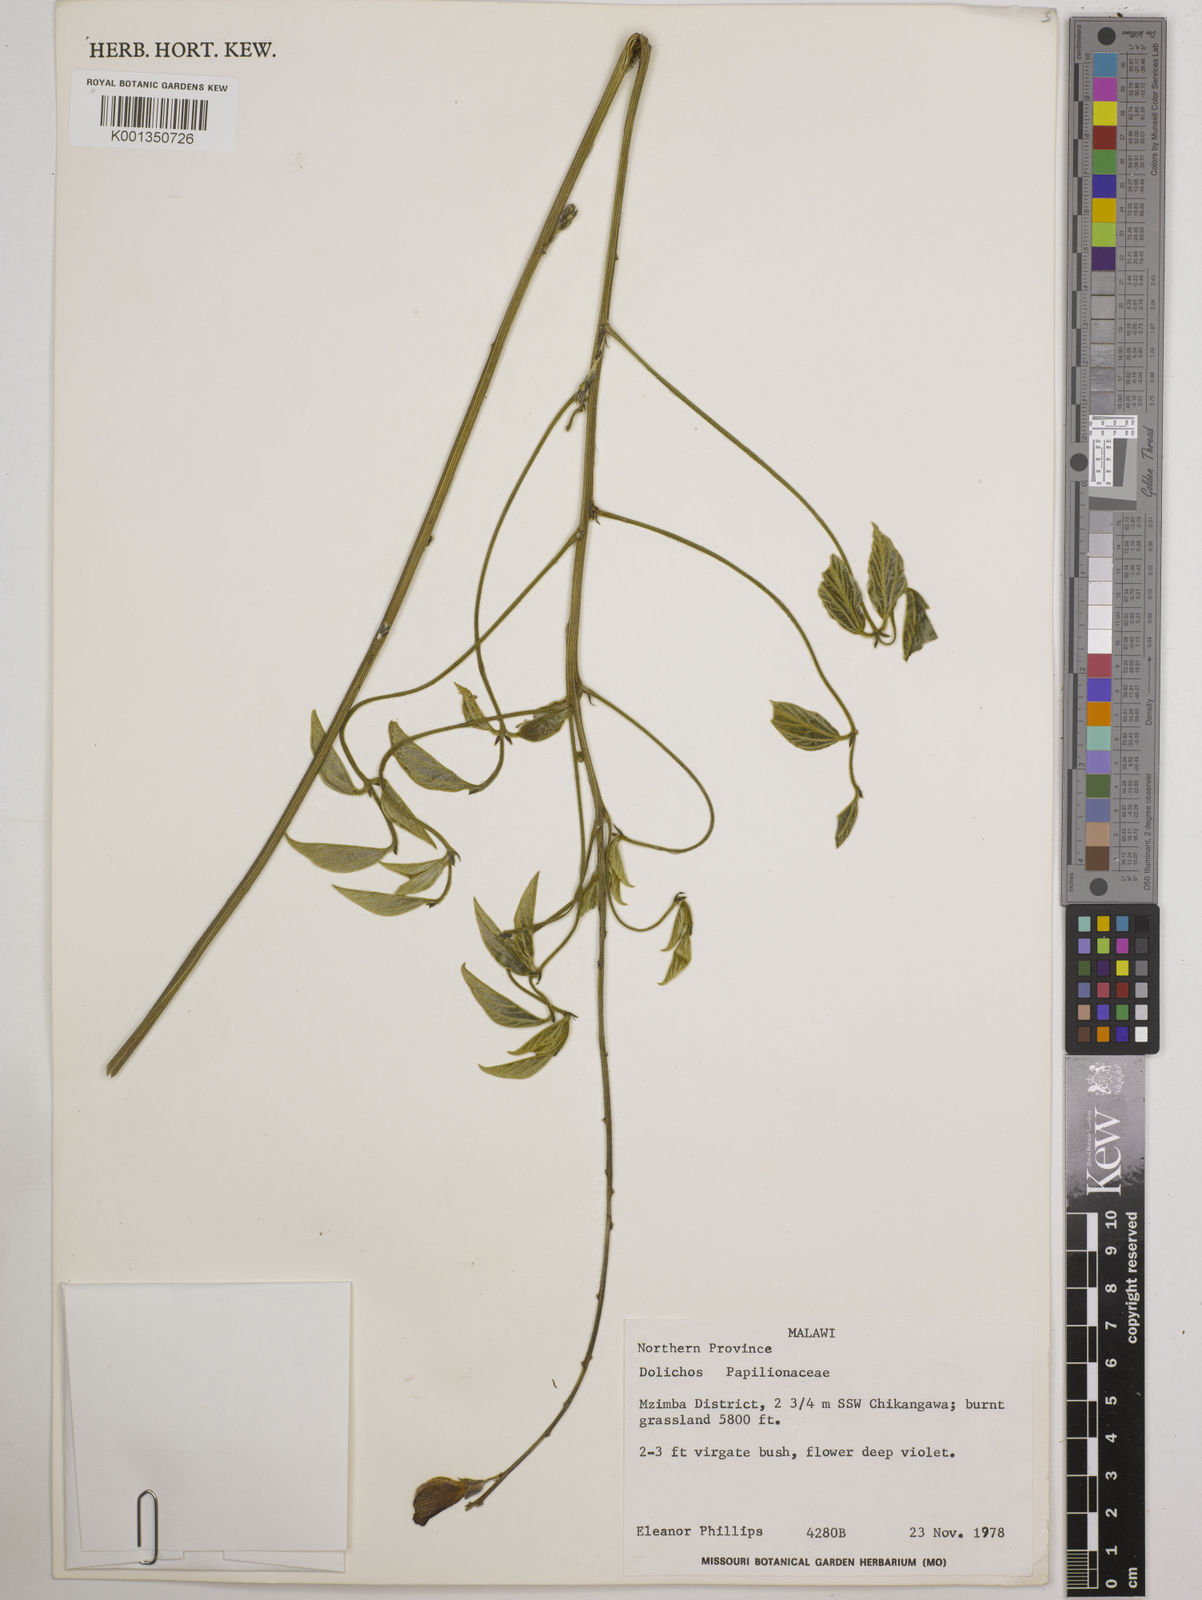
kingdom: Plantae
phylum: Tracheophyta
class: Magnoliopsida
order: Fabales
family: Fabaceae
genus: Dolichos
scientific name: Dolichos
